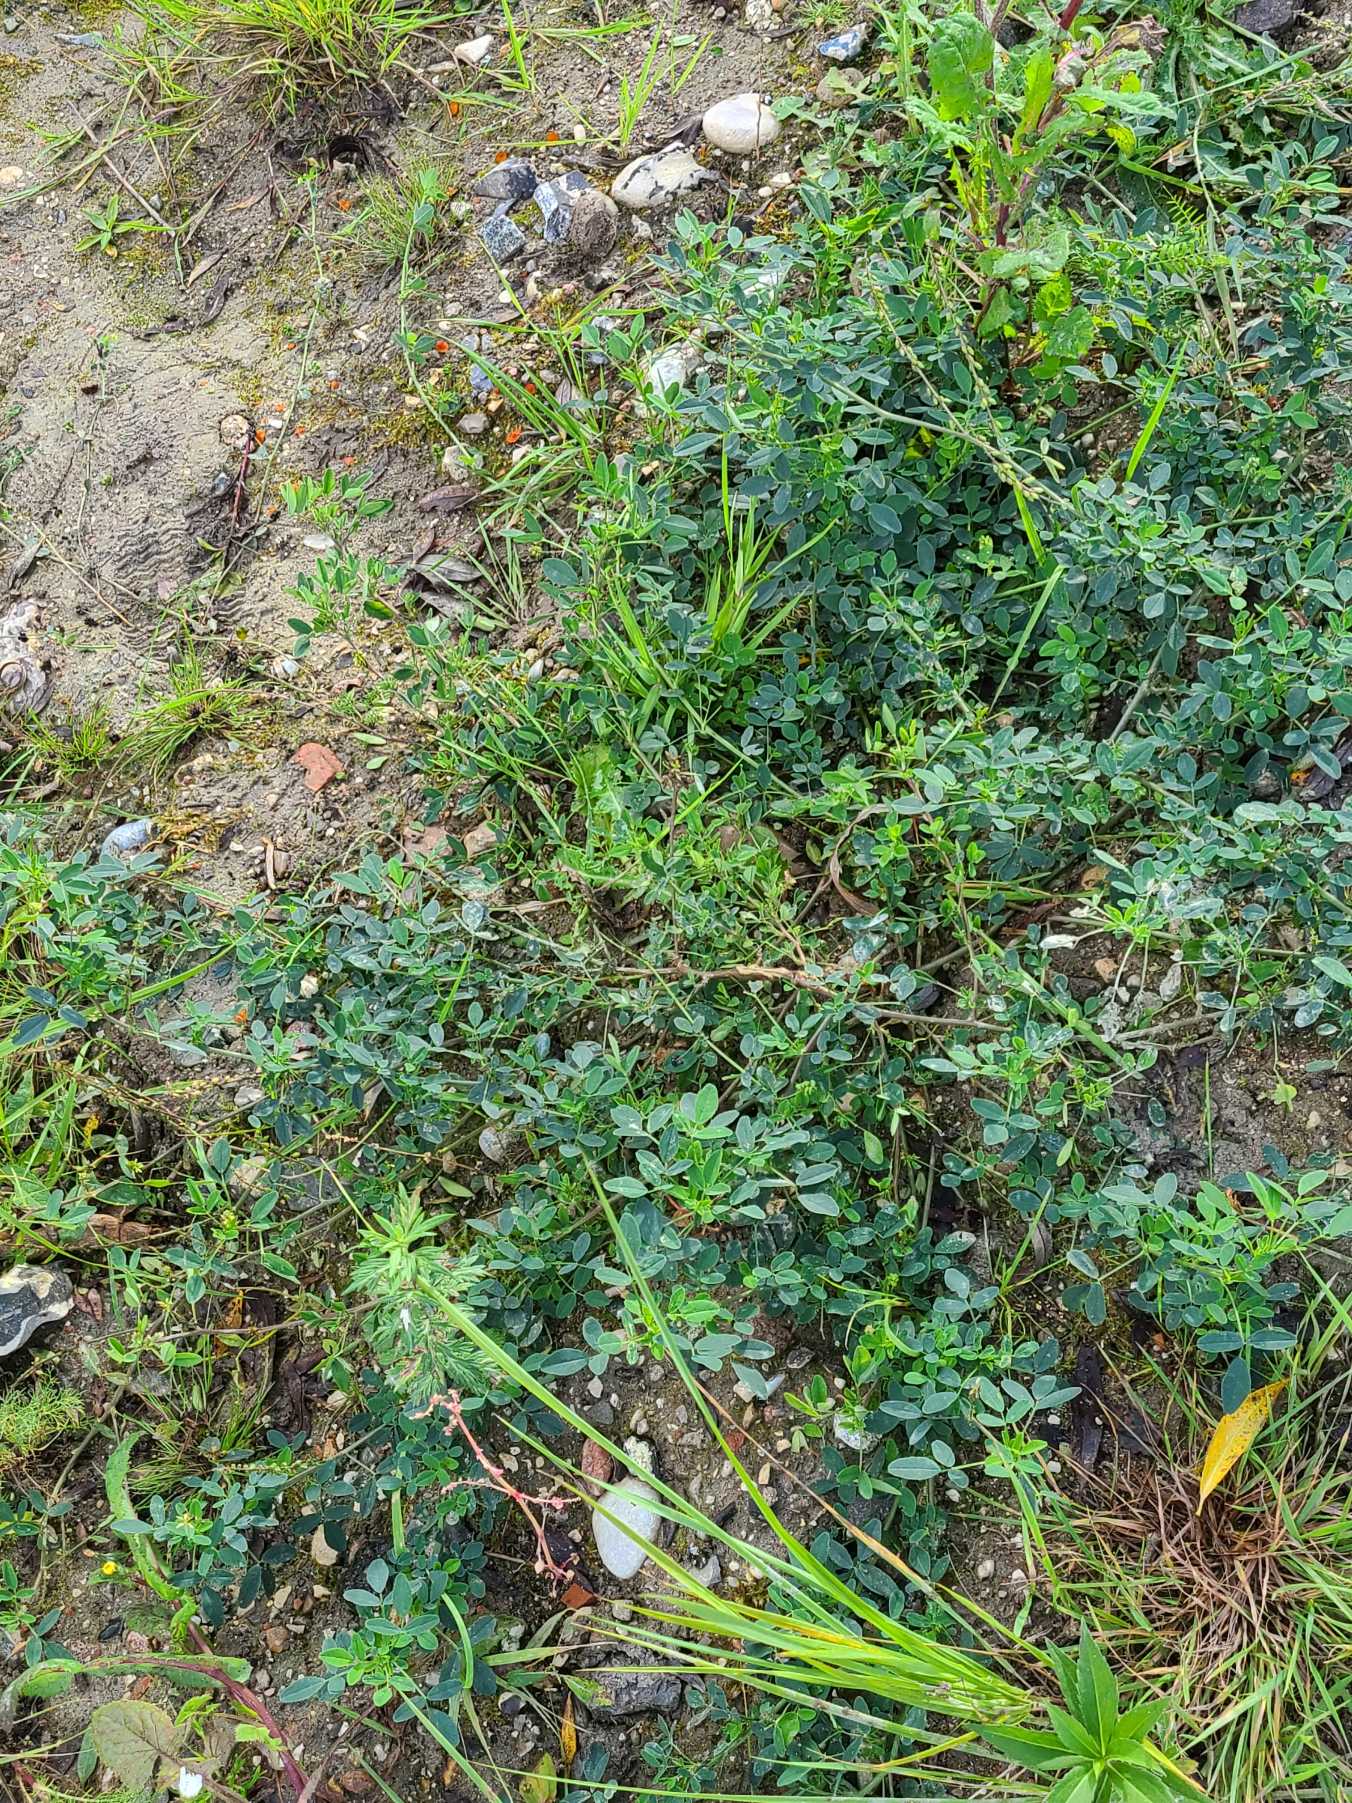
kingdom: Plantae
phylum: Tracheophyta
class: Magnoliopsida
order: Fabales
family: Fabaceae
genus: Medicago
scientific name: Medicago lupulina
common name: Humle-sneglebælg
